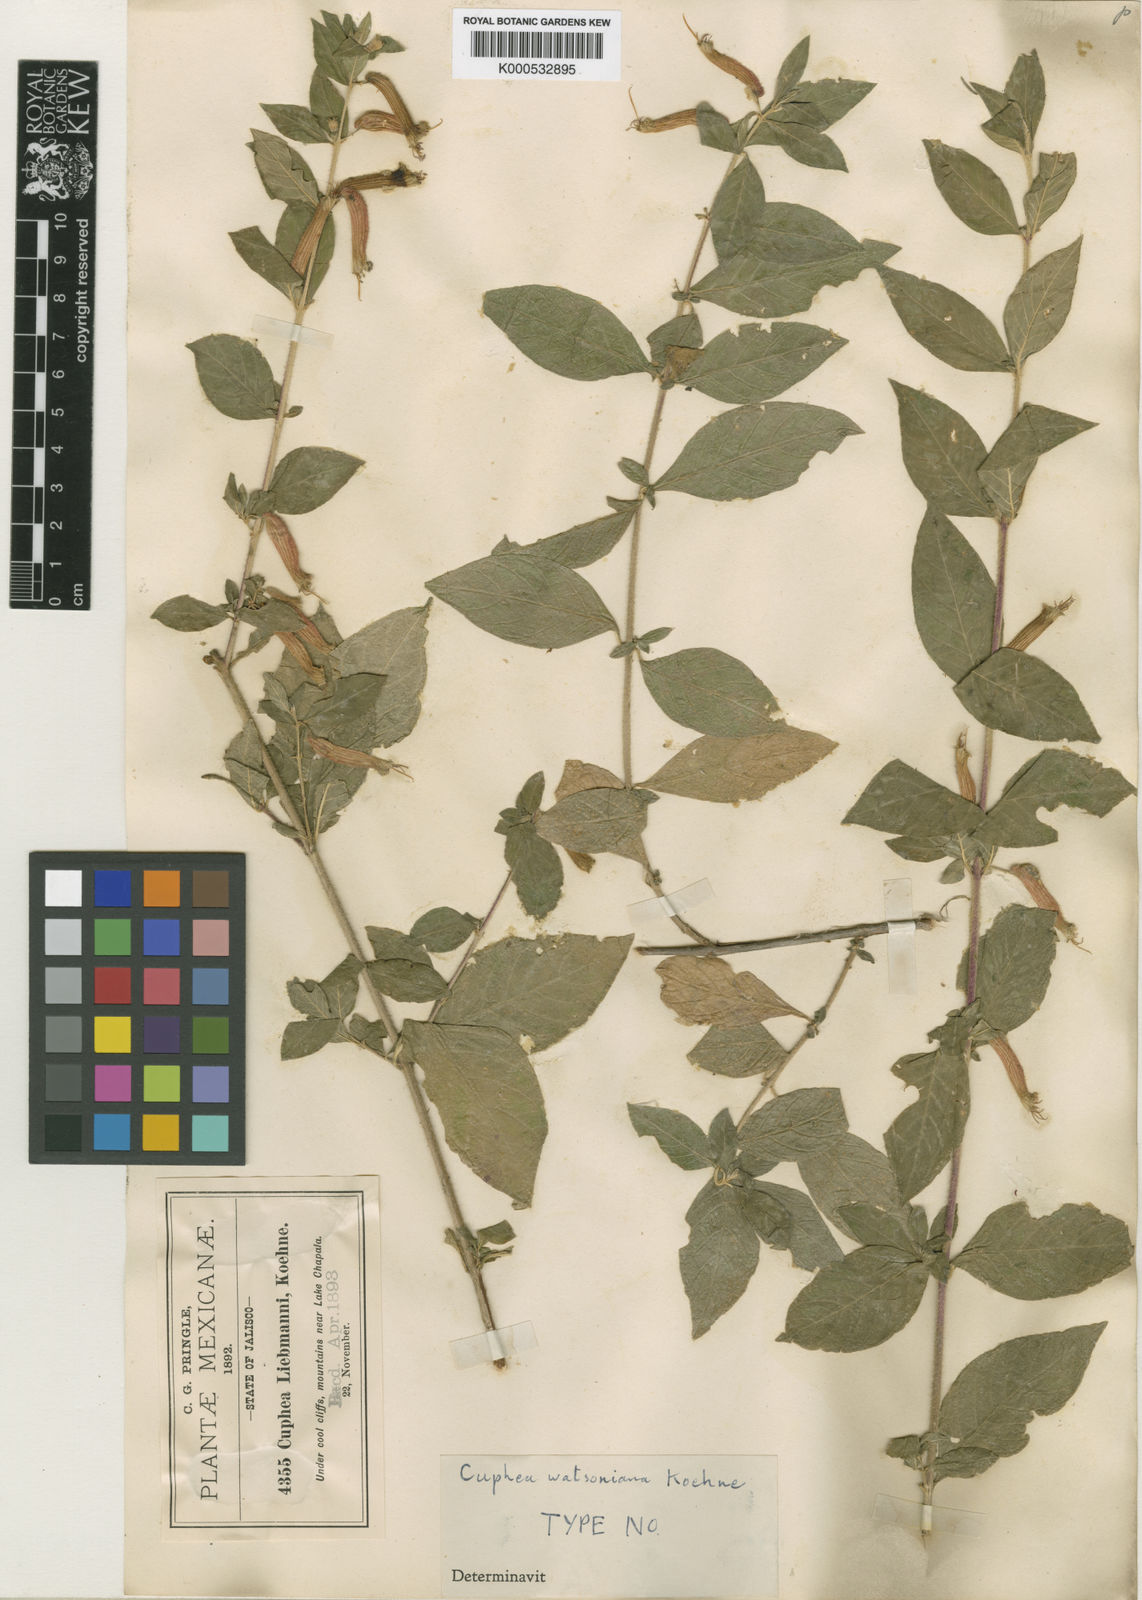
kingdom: Plantae
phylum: Tracheophyta
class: Magnoliopsida
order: Myrtales
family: Lythraceae
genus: Cuphea
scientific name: Cuphea watsoniana
